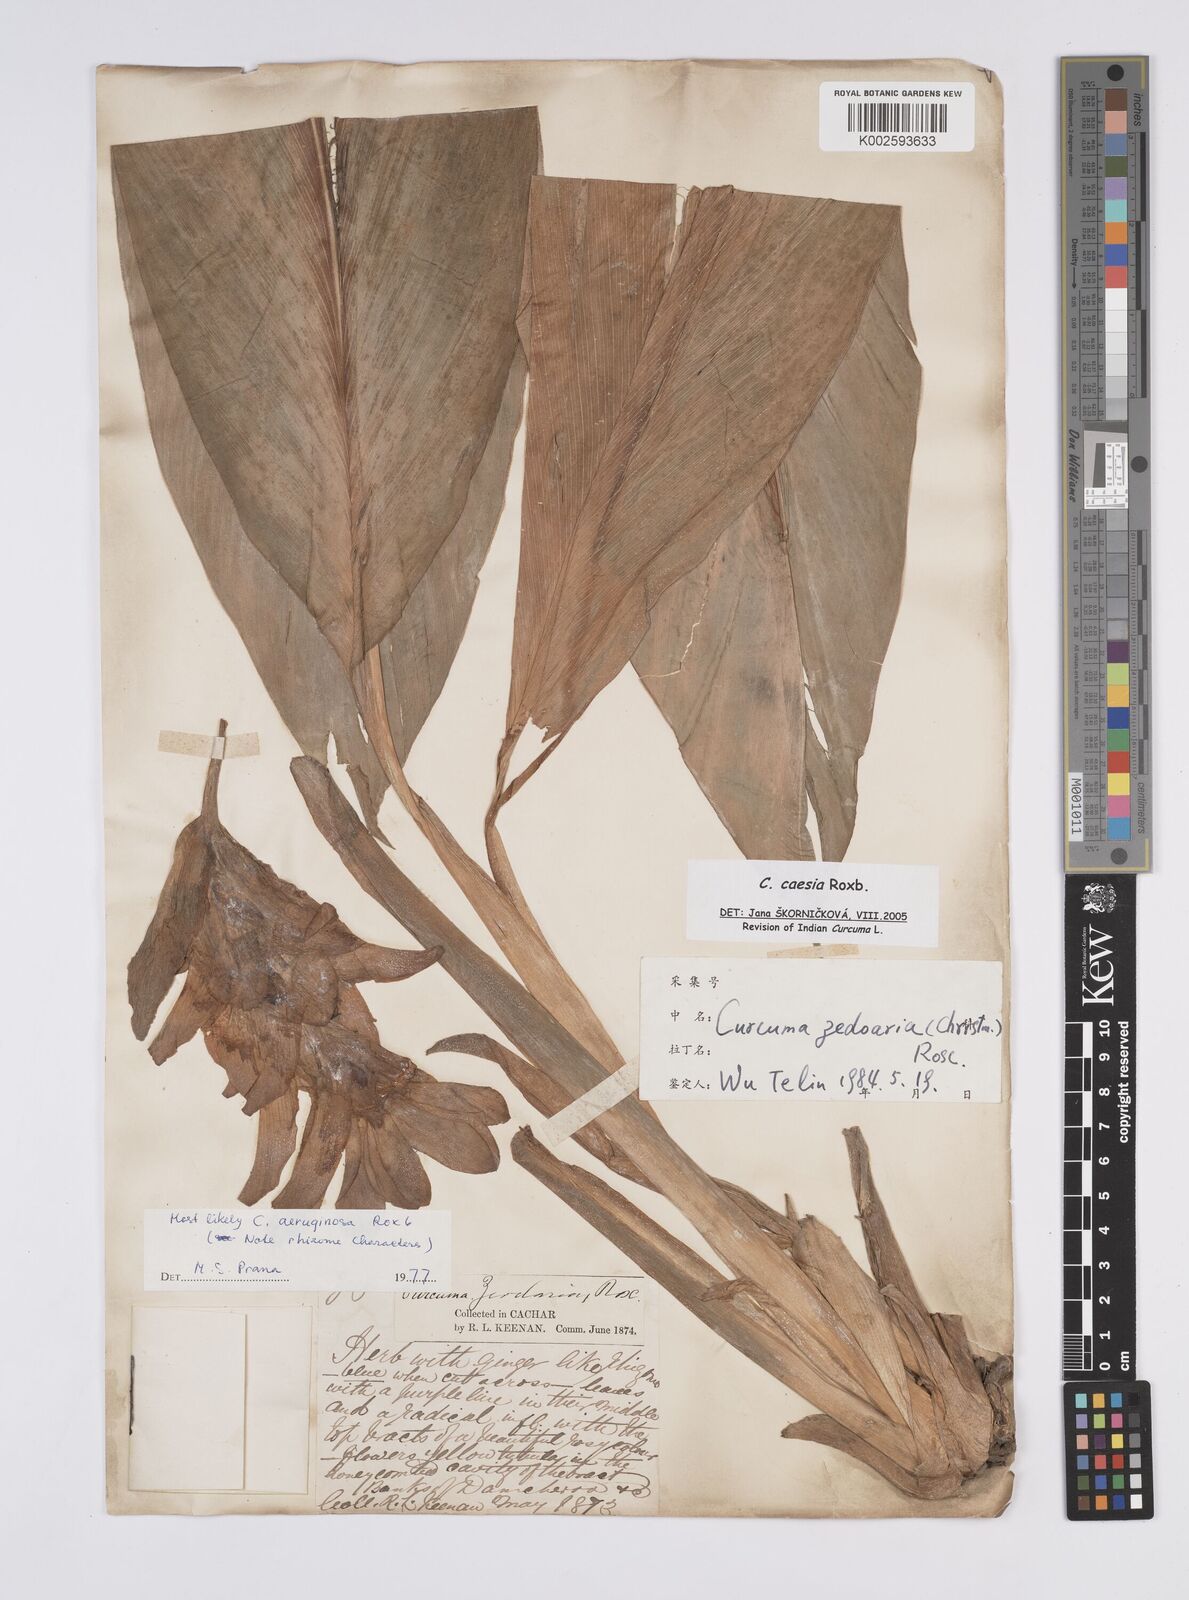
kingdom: Plantae
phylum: Tracheophyta
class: Liliopsida
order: Zingiberales
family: Zingiberaceae
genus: Curcuma
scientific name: Curcuma caesia
